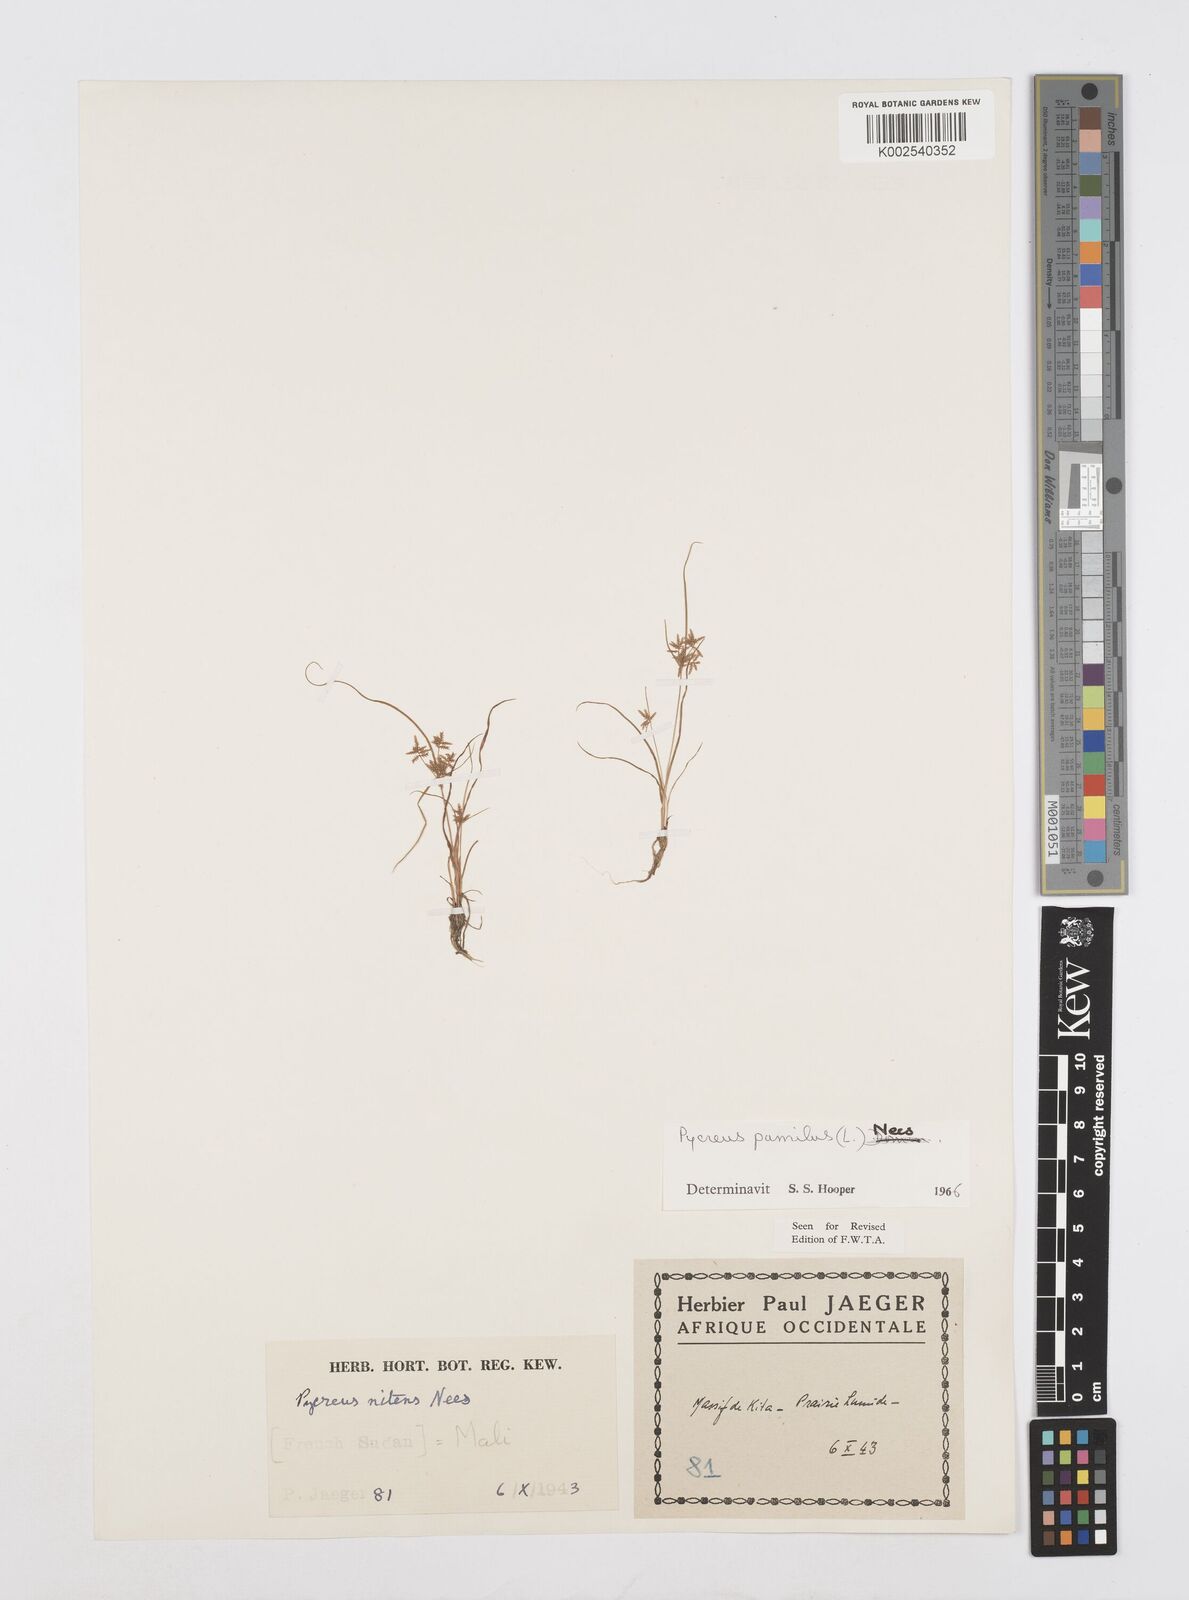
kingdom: Plantae
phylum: Tracheophyta
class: Liliopsida
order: Poales
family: Cyperaceae
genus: Cyperus
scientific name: Cyperus pumilus
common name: Low flatsedge
